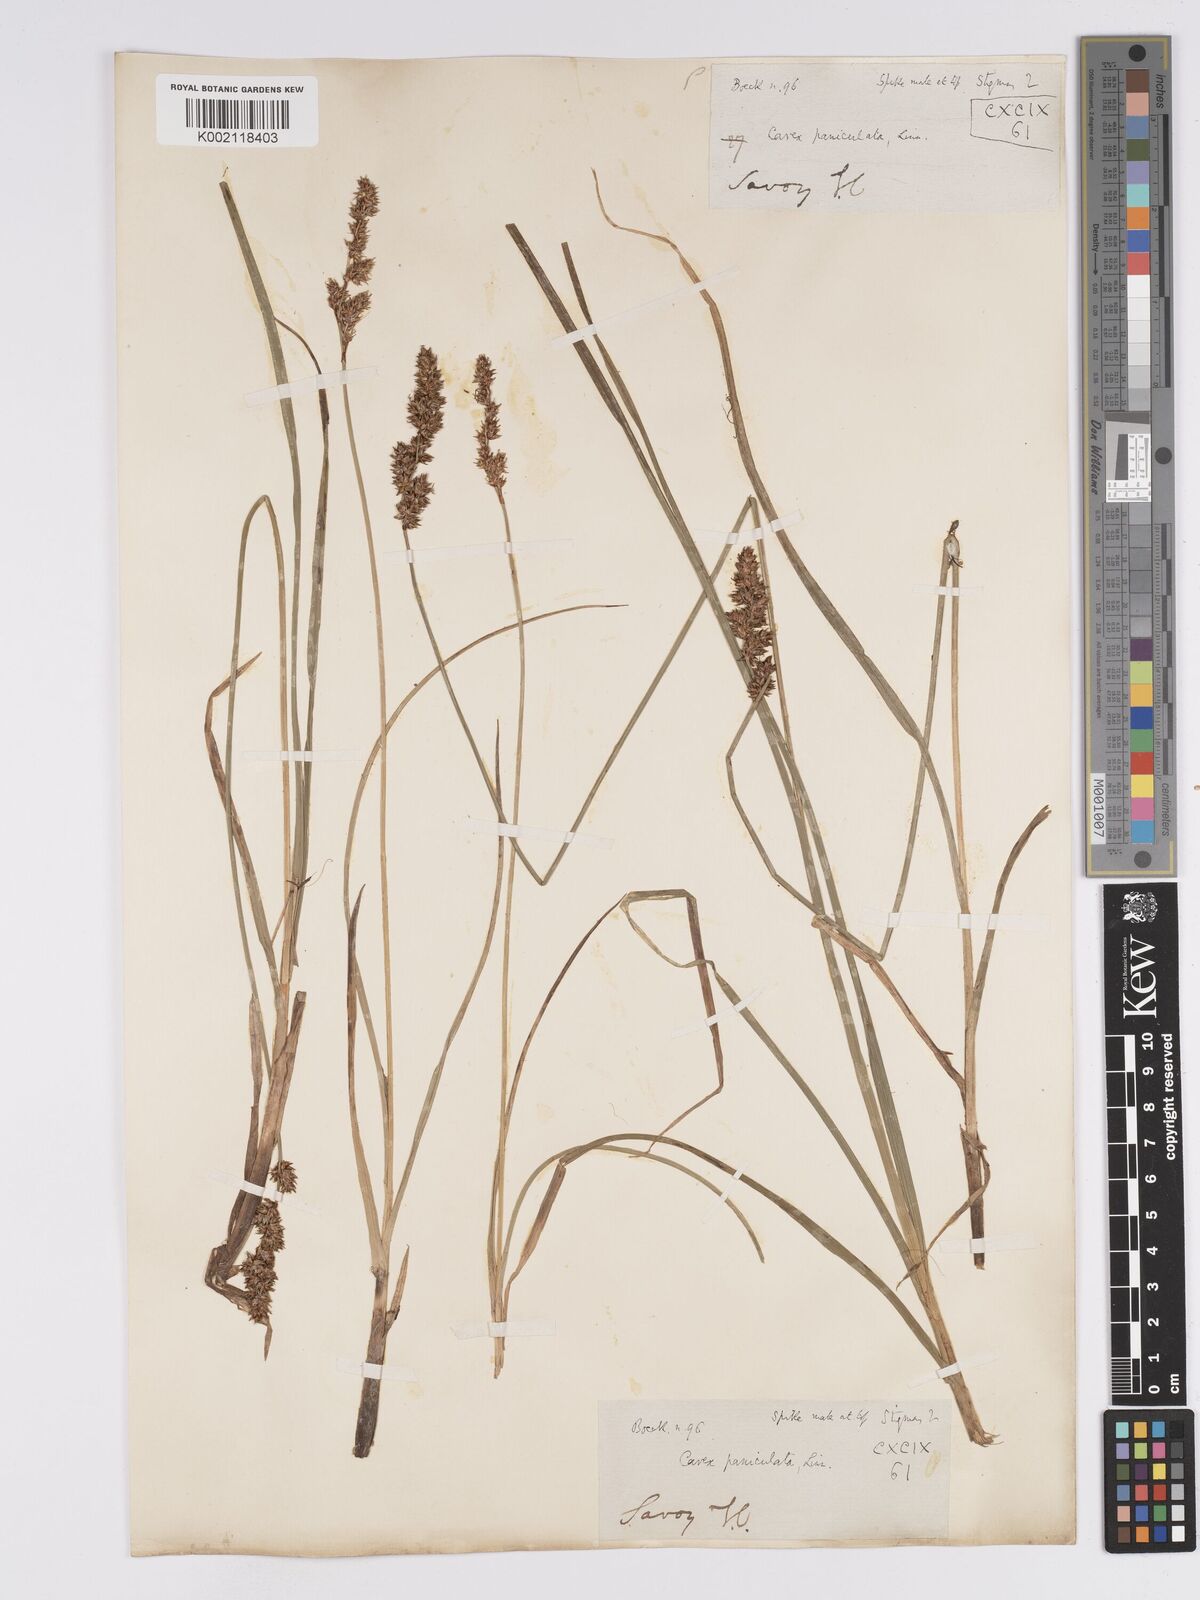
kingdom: Plantae
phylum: Tracheophyta
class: Liliopsida
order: Poales
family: Cyperaceae
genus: Carex
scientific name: Carex paniculata
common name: Greater tussock-sedge
